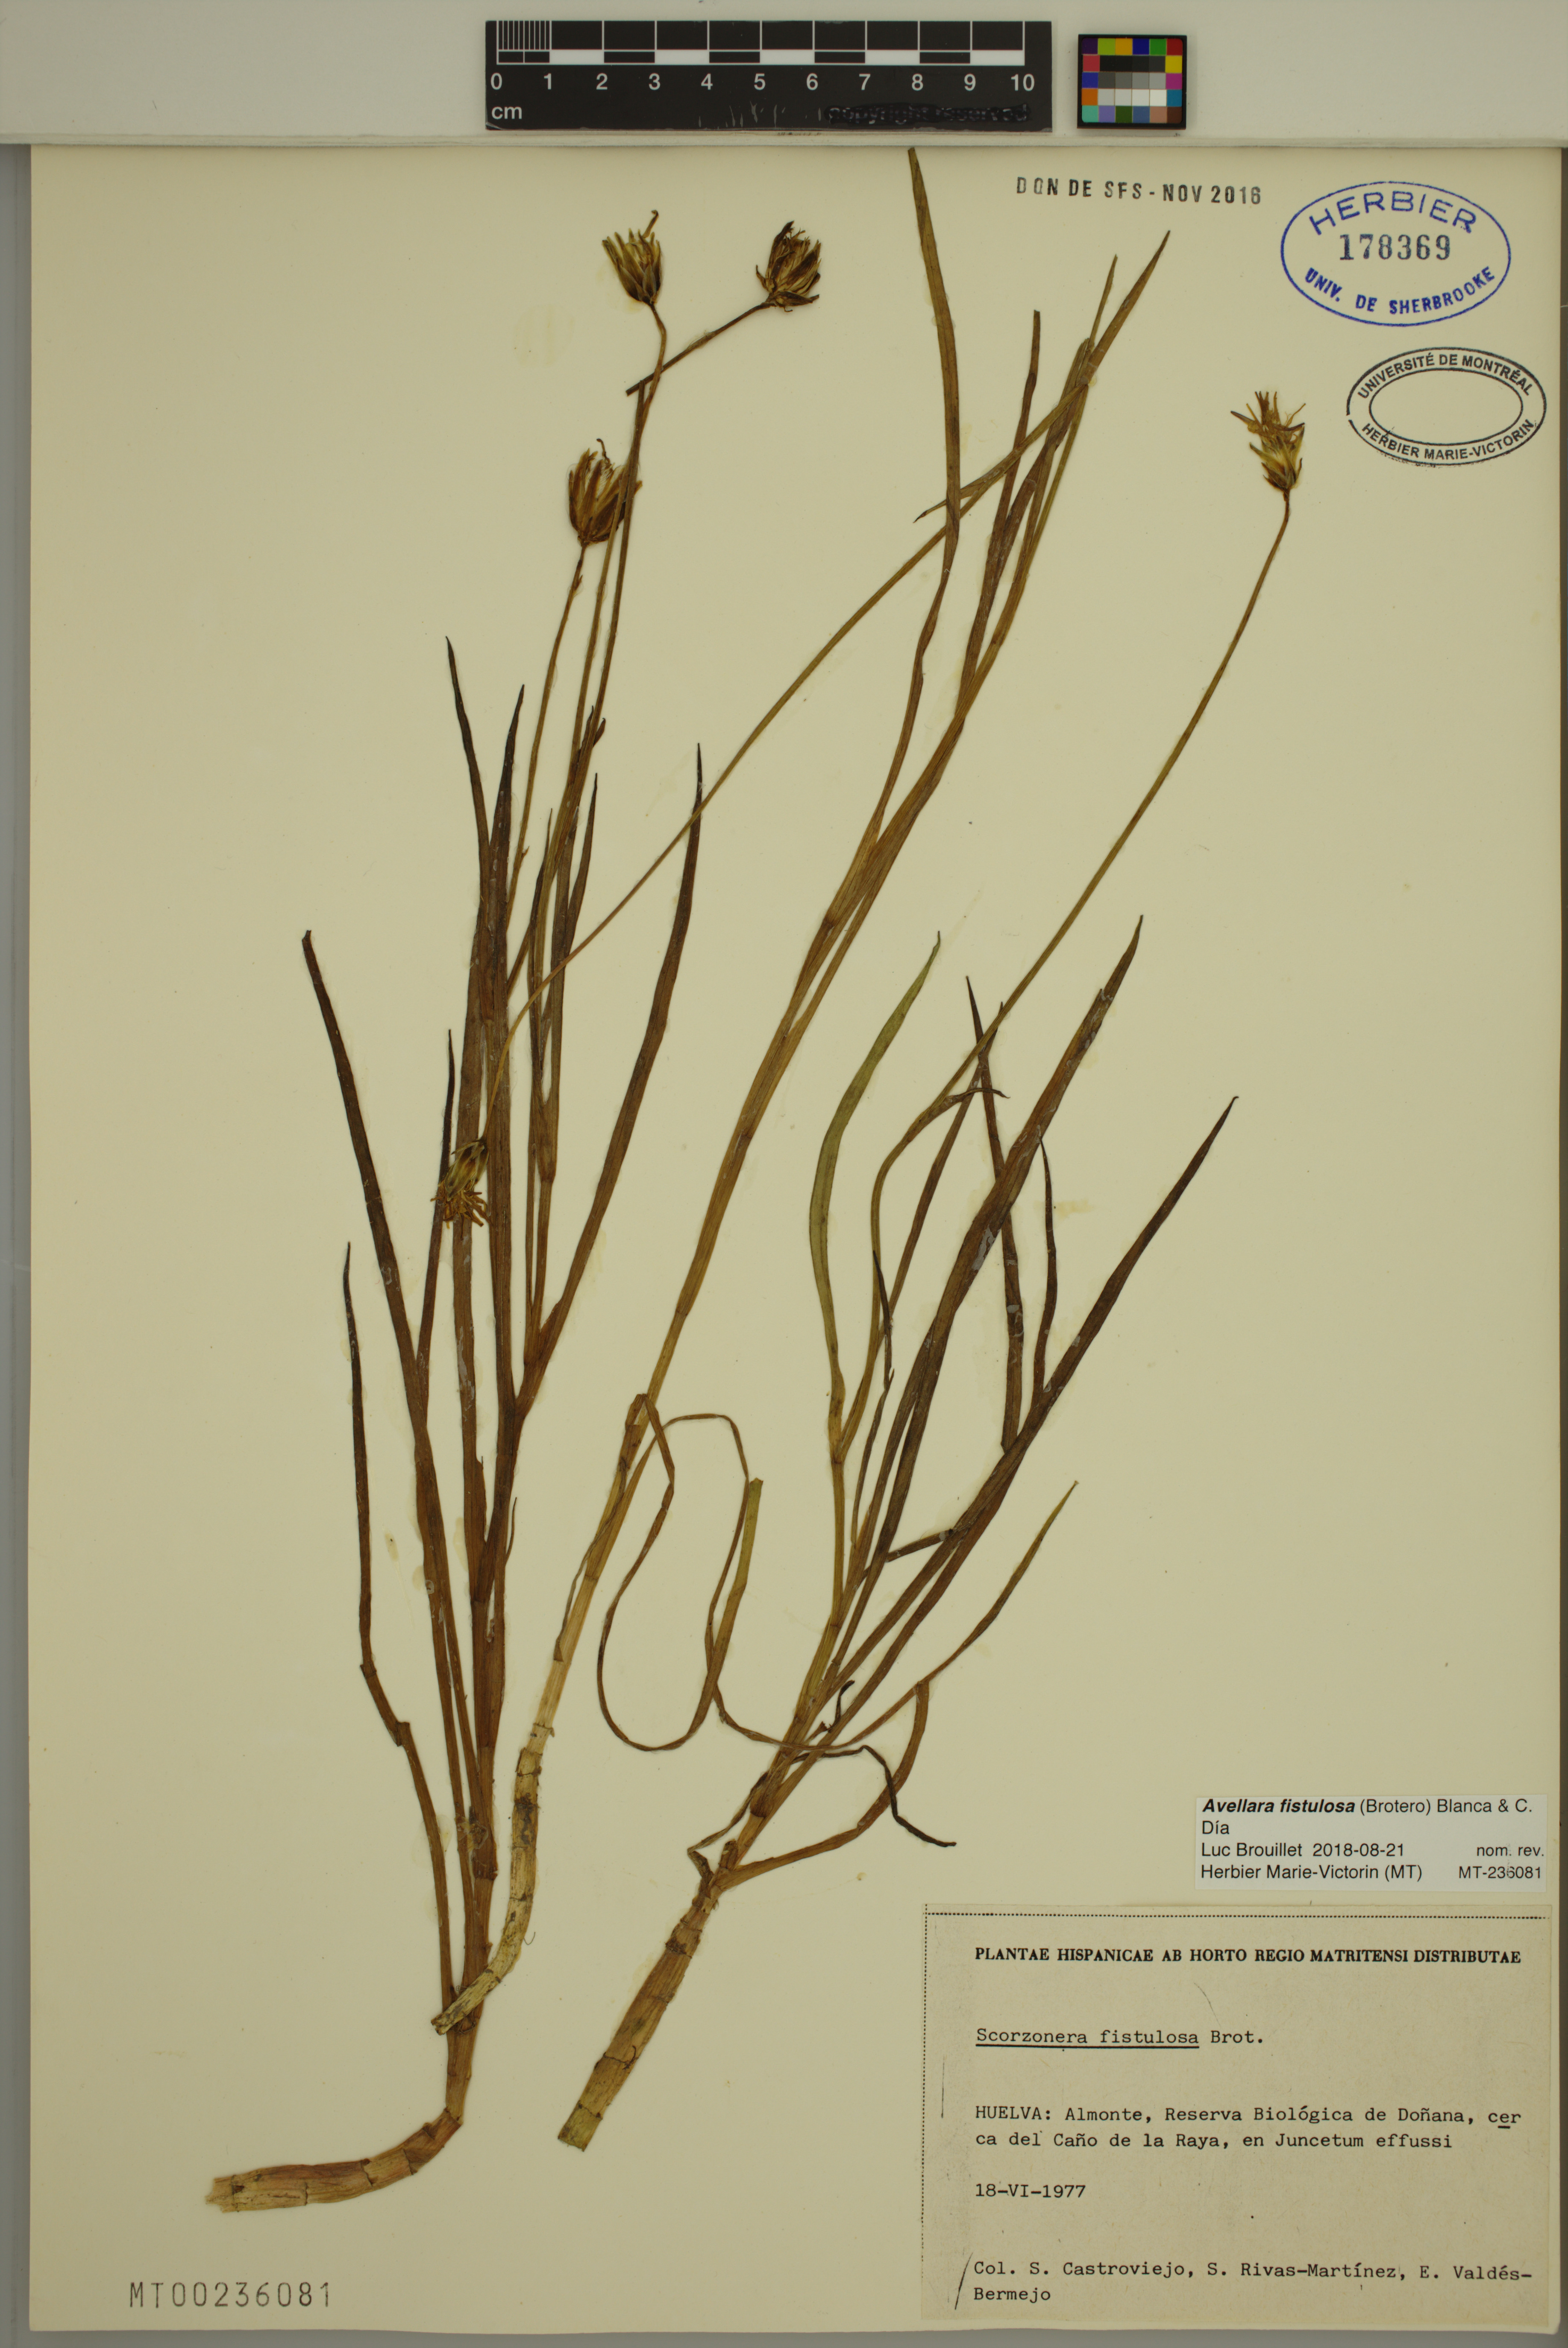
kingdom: Plantae
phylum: Tracheophyta
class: Magnoliopsida
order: Asterales
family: Asteraceae
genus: Avellara
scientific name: Avellara fistulosa
